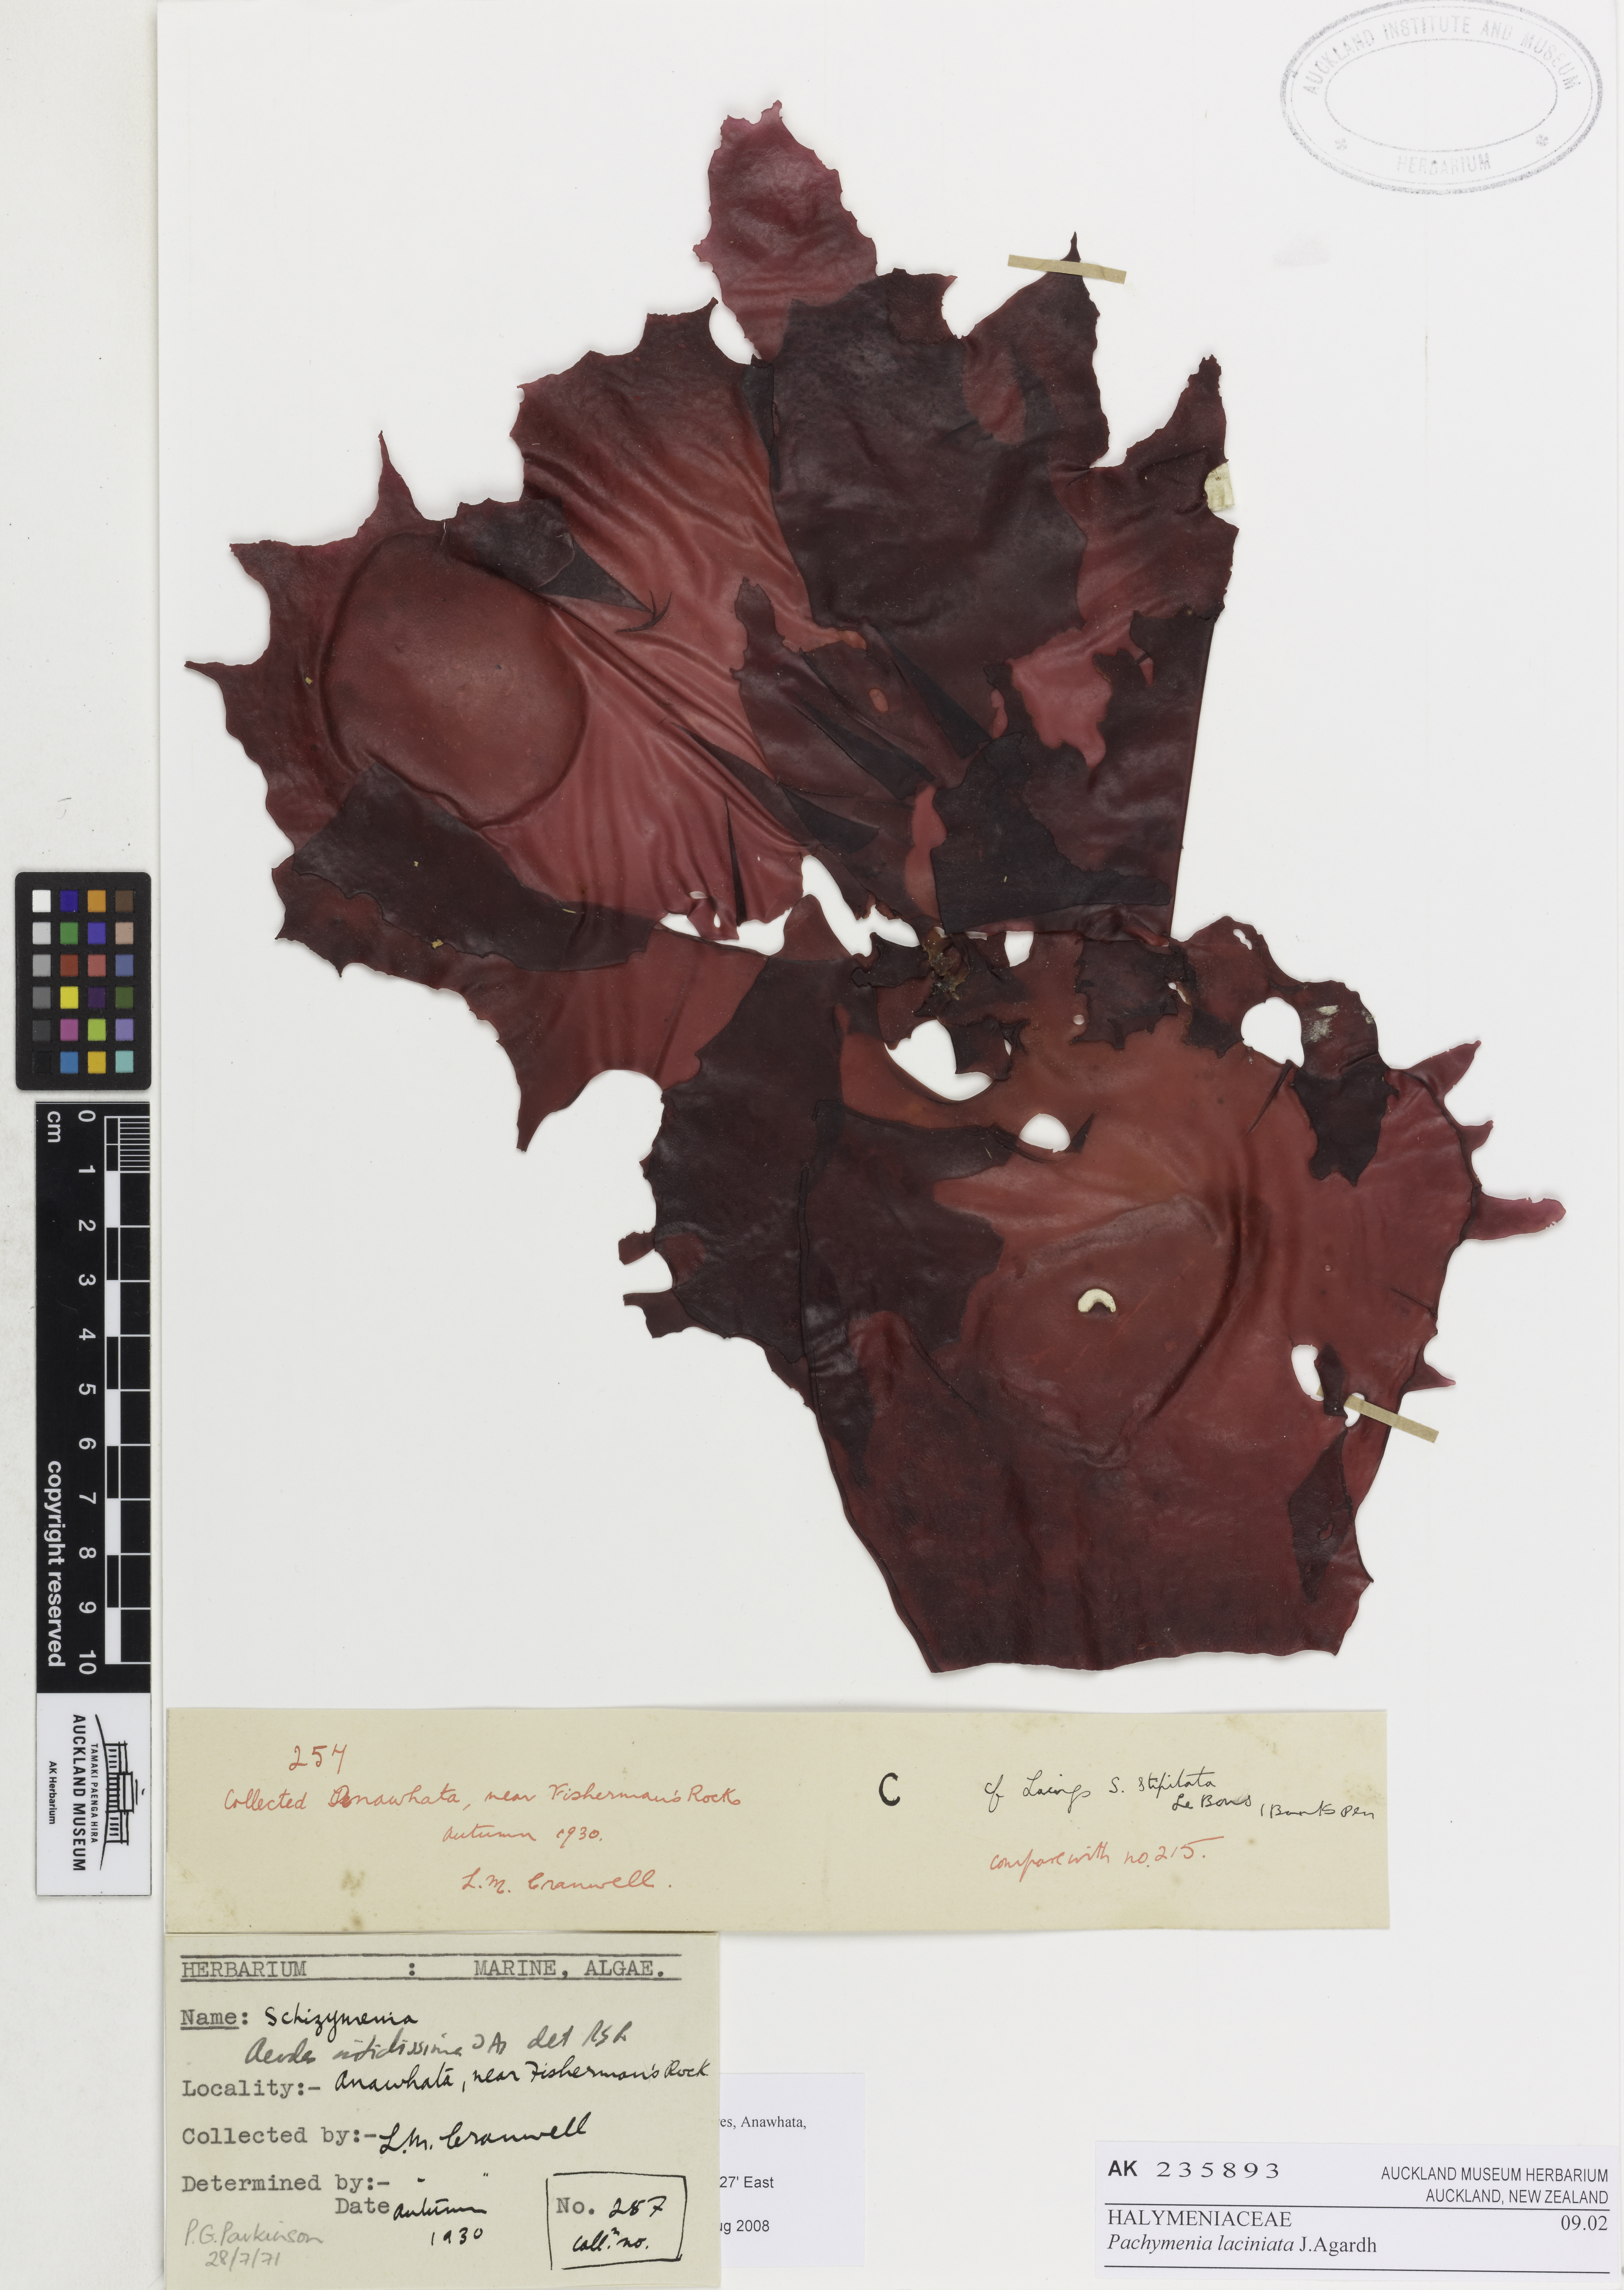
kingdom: Plantae
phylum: Rhodophyta
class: Florideophyceae
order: Halymeniales
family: Halymeniaceae
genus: Pachymenia
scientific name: Pachymenia laciniata
